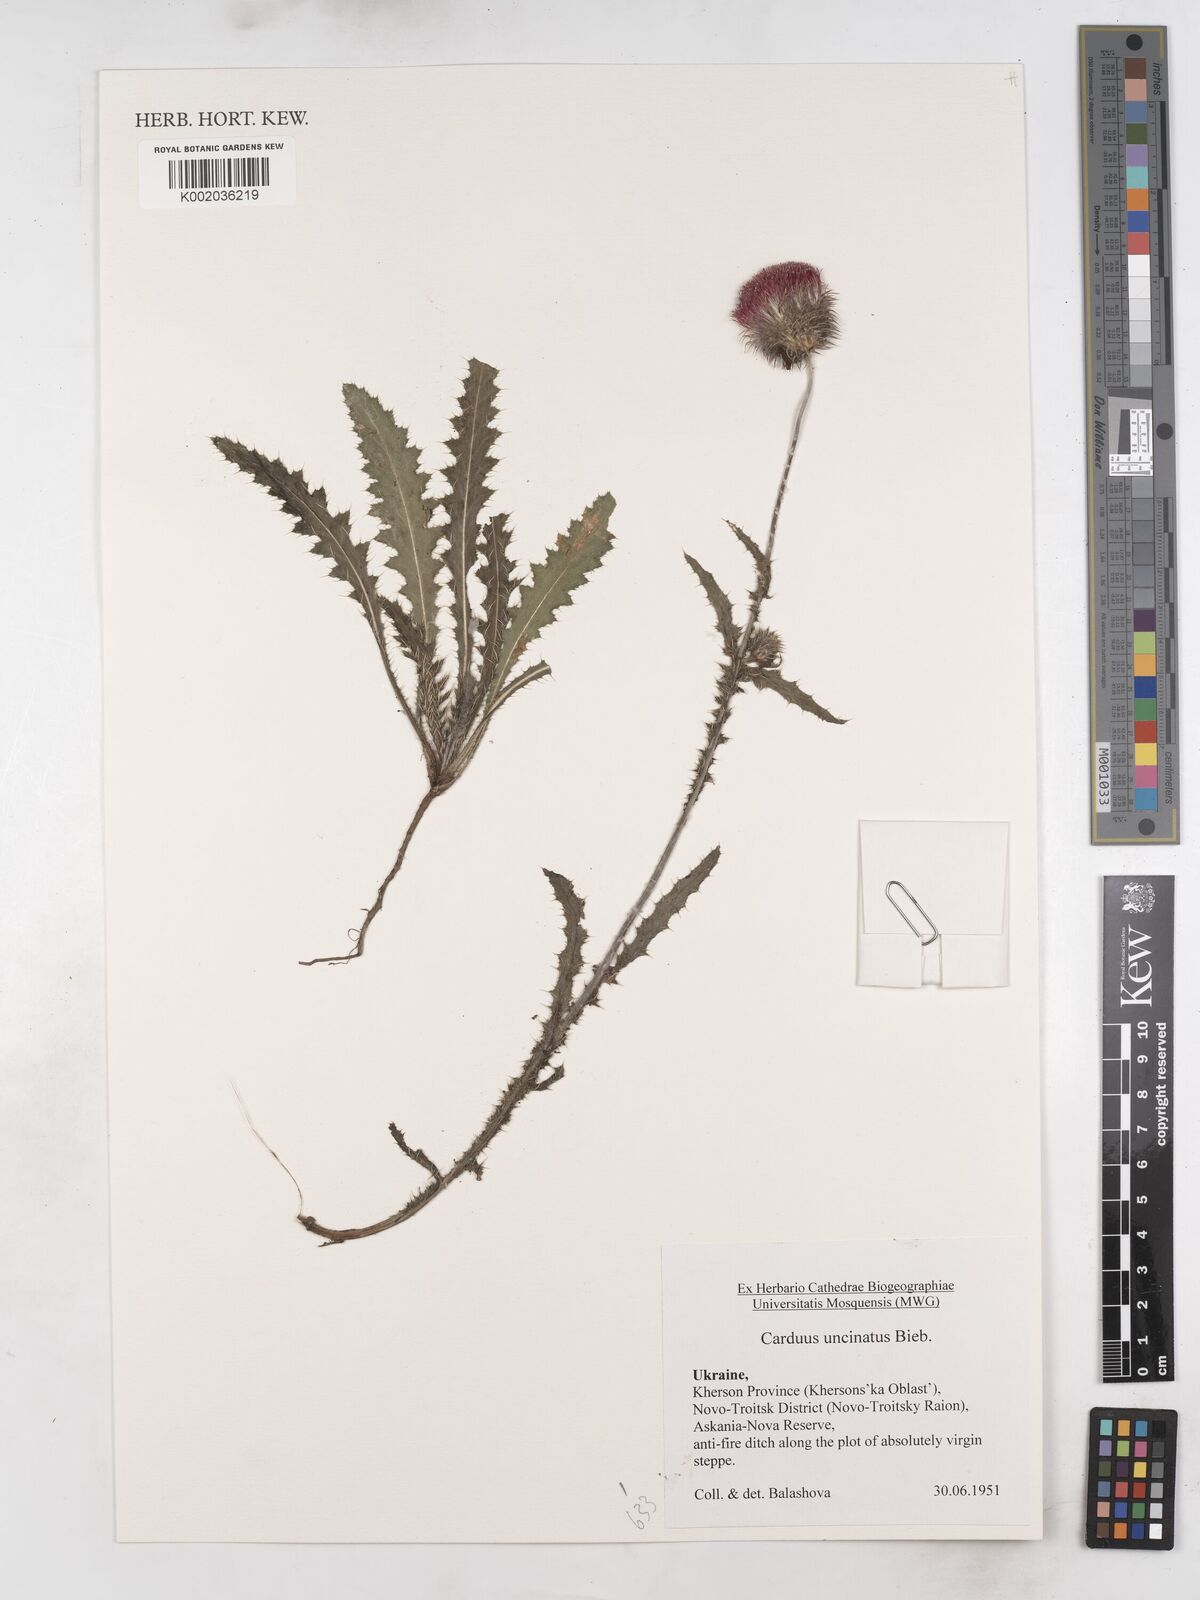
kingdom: Plantae
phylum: Tracheophyta
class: Magnoliopsida
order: Asterales
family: Asteraceae
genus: Carduus
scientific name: Carduus uncinatus
